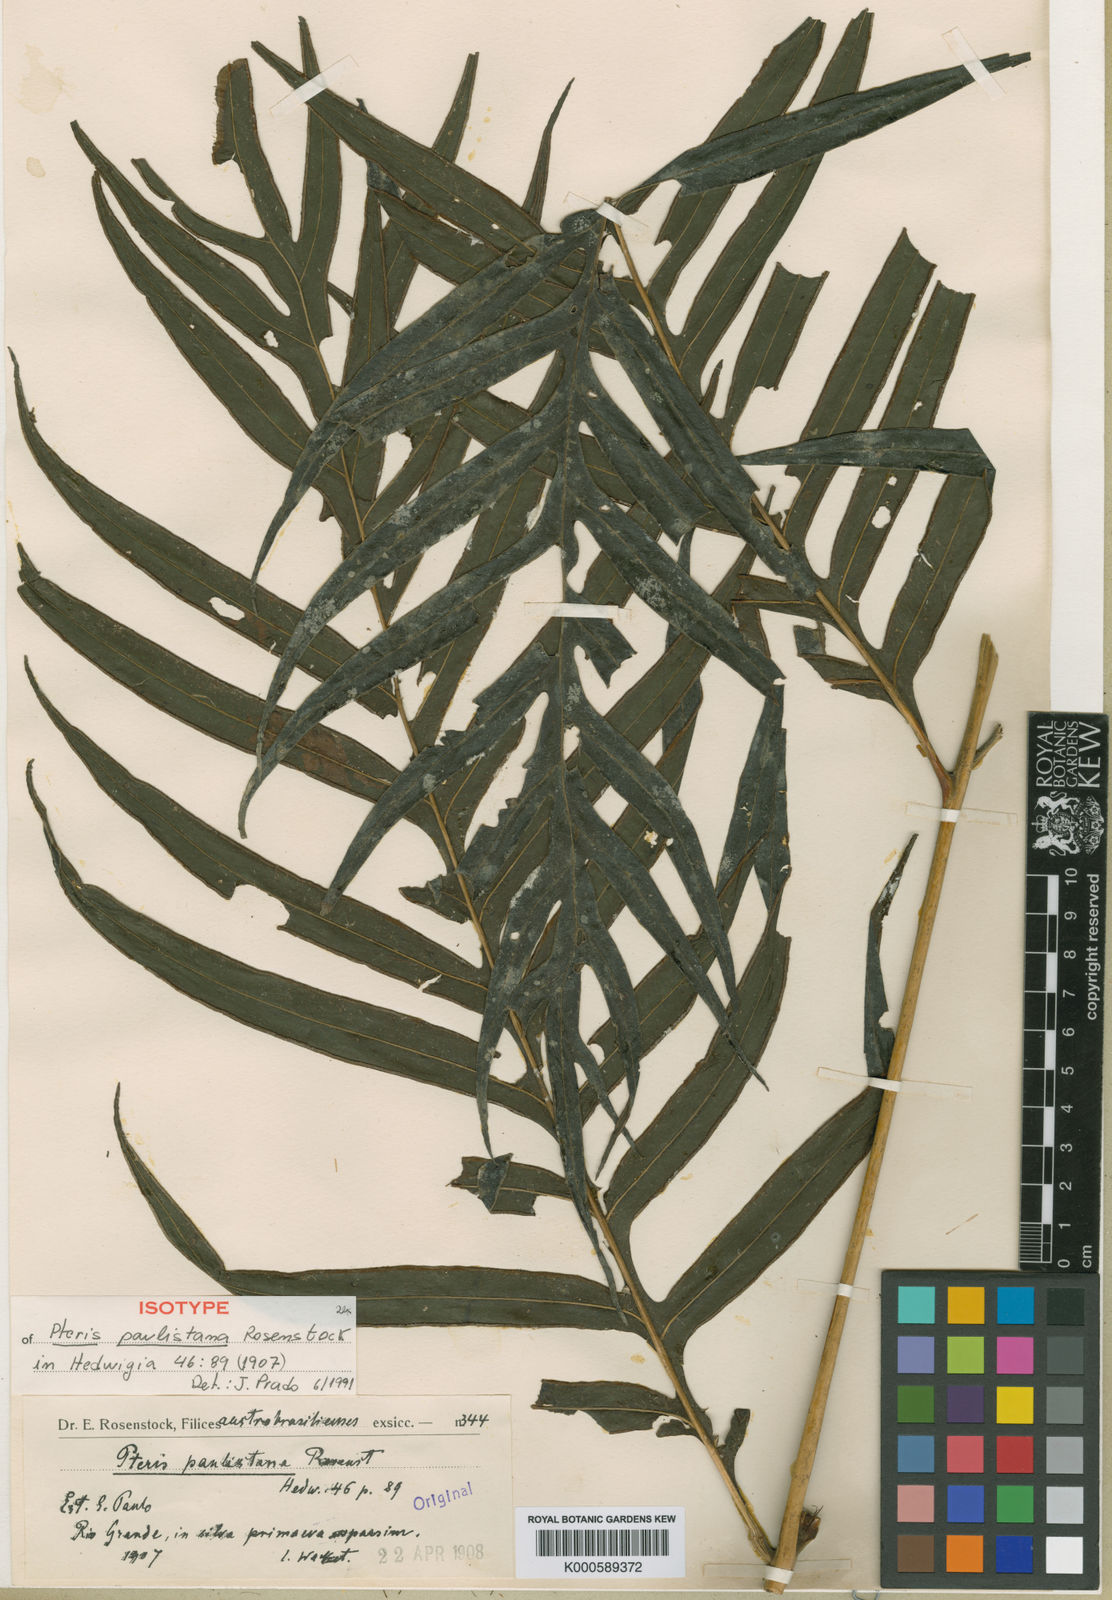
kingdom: Plantae
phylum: Tracheophyta
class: Polypodiopsida
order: Polypodiales
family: Pteridaceae
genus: Pteris
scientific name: Pteris altissima
